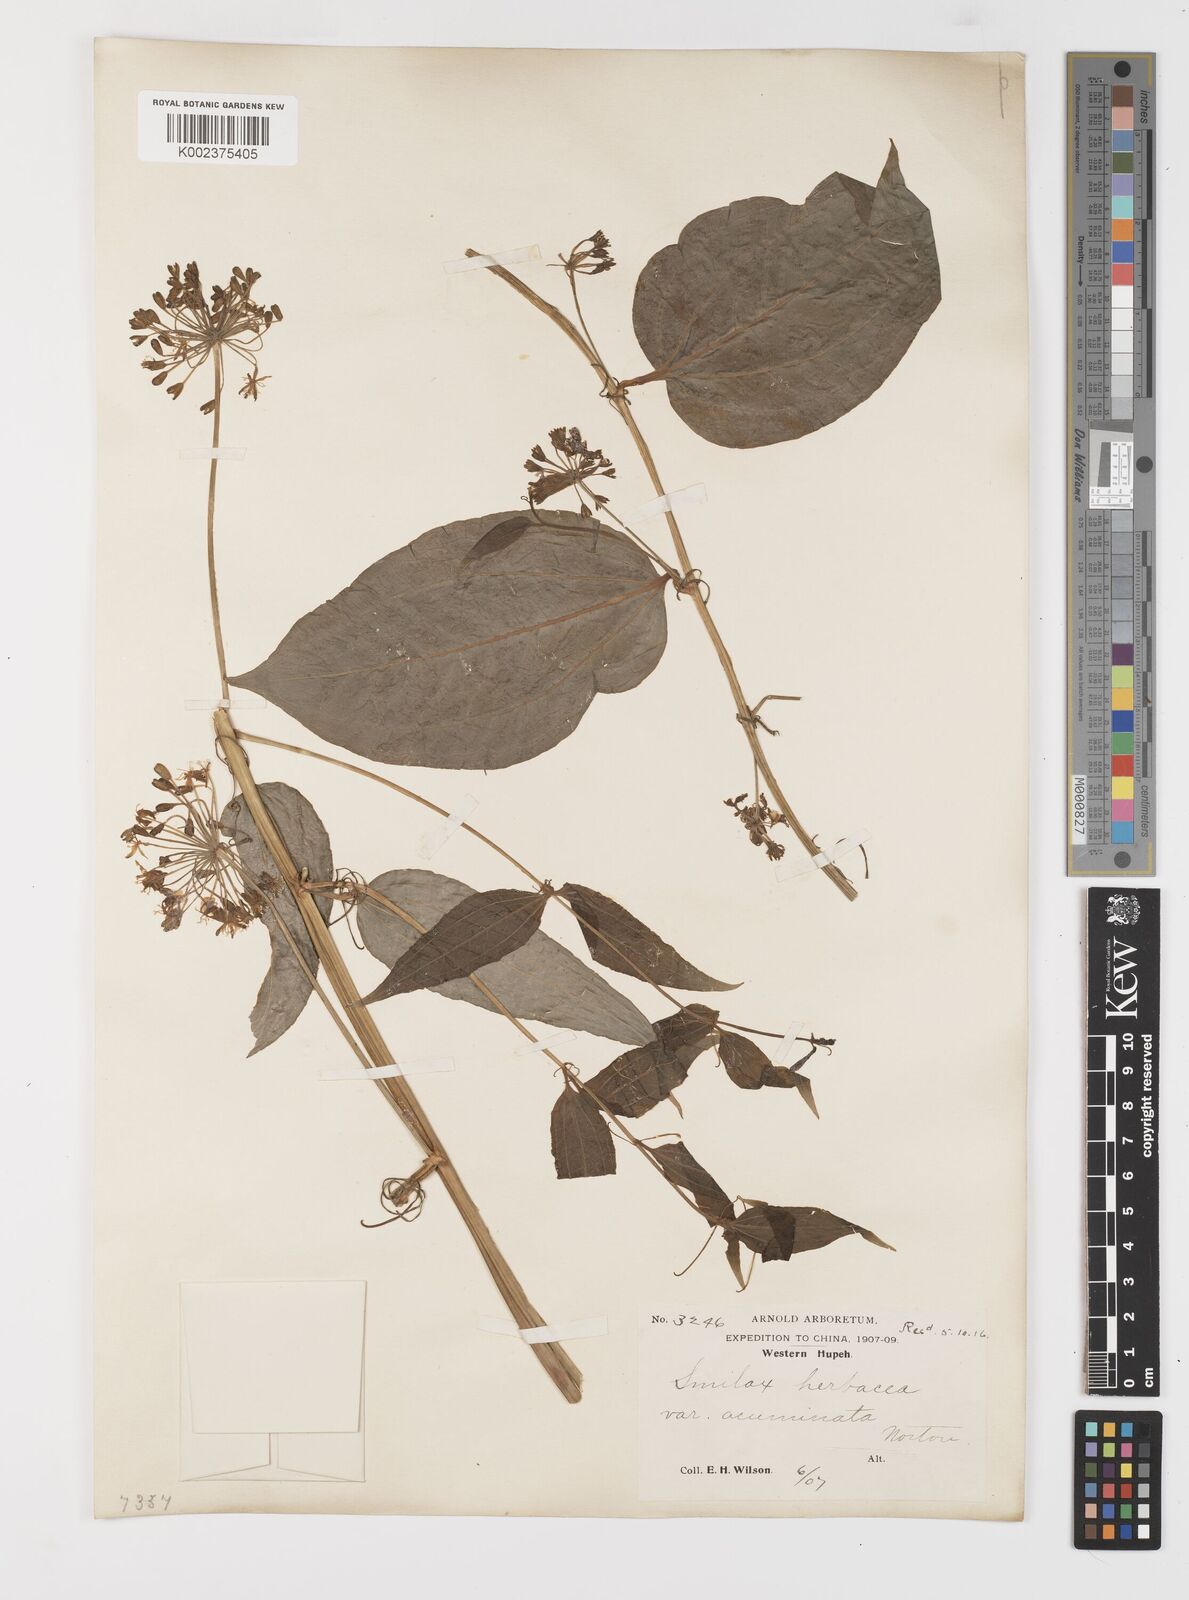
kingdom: Plantae
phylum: Tracheophyta
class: Liliopsida
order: Liliales
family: Smilacaceae
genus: Smilax
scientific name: Smilax nipponica
